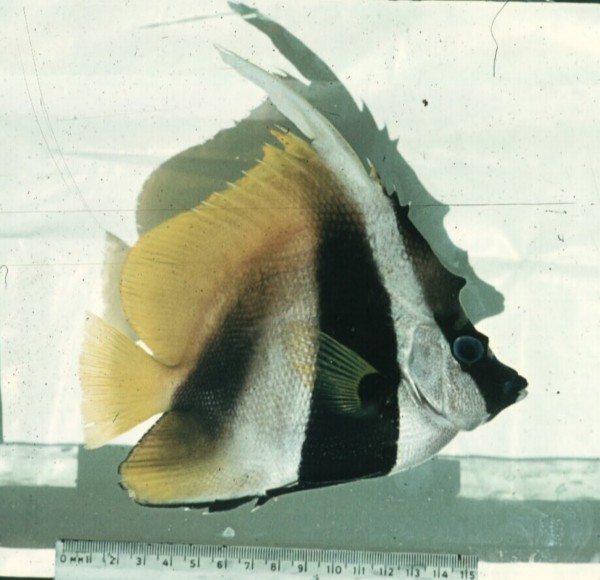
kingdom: Animalia
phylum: Chordata
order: Perciformes
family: Chaetodontidae
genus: Heniochus
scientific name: Heniochus monoceros
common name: Masked bannerfish
